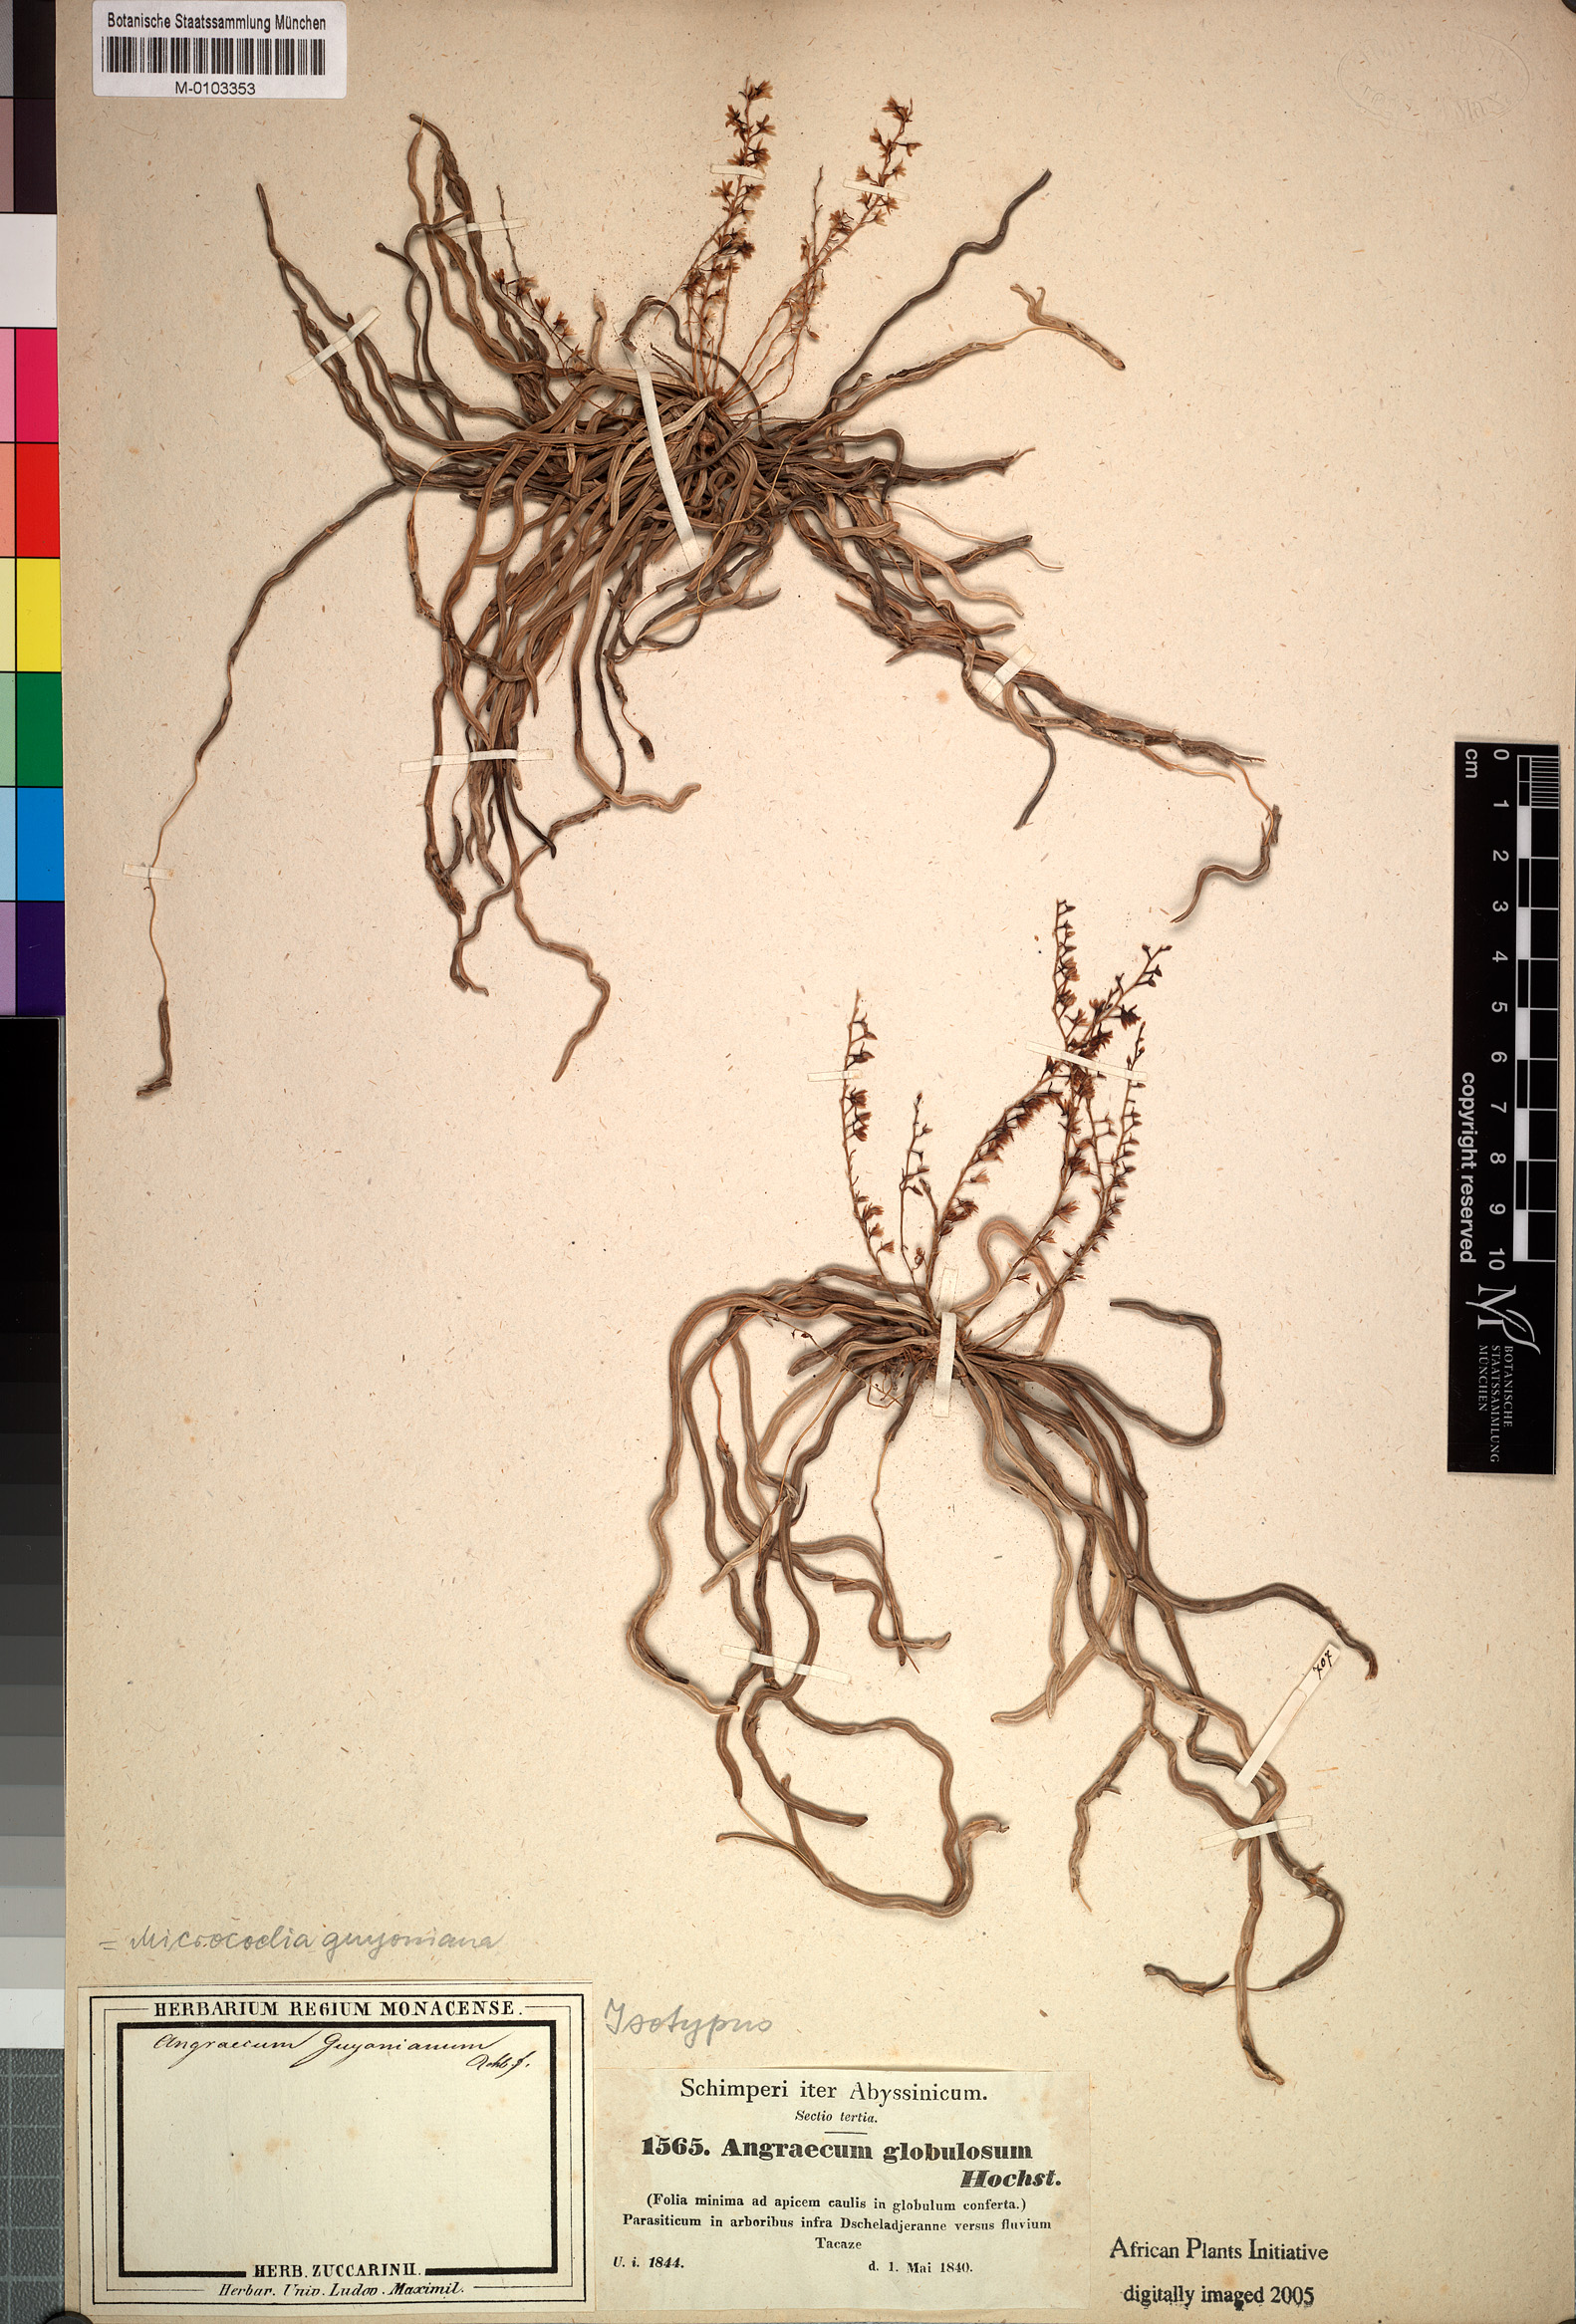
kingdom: Plantae
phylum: Tracheophyta
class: Liliopsida
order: Asparagales
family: Orchidaceae
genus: Microcoelia
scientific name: Microcoelia globulosa
